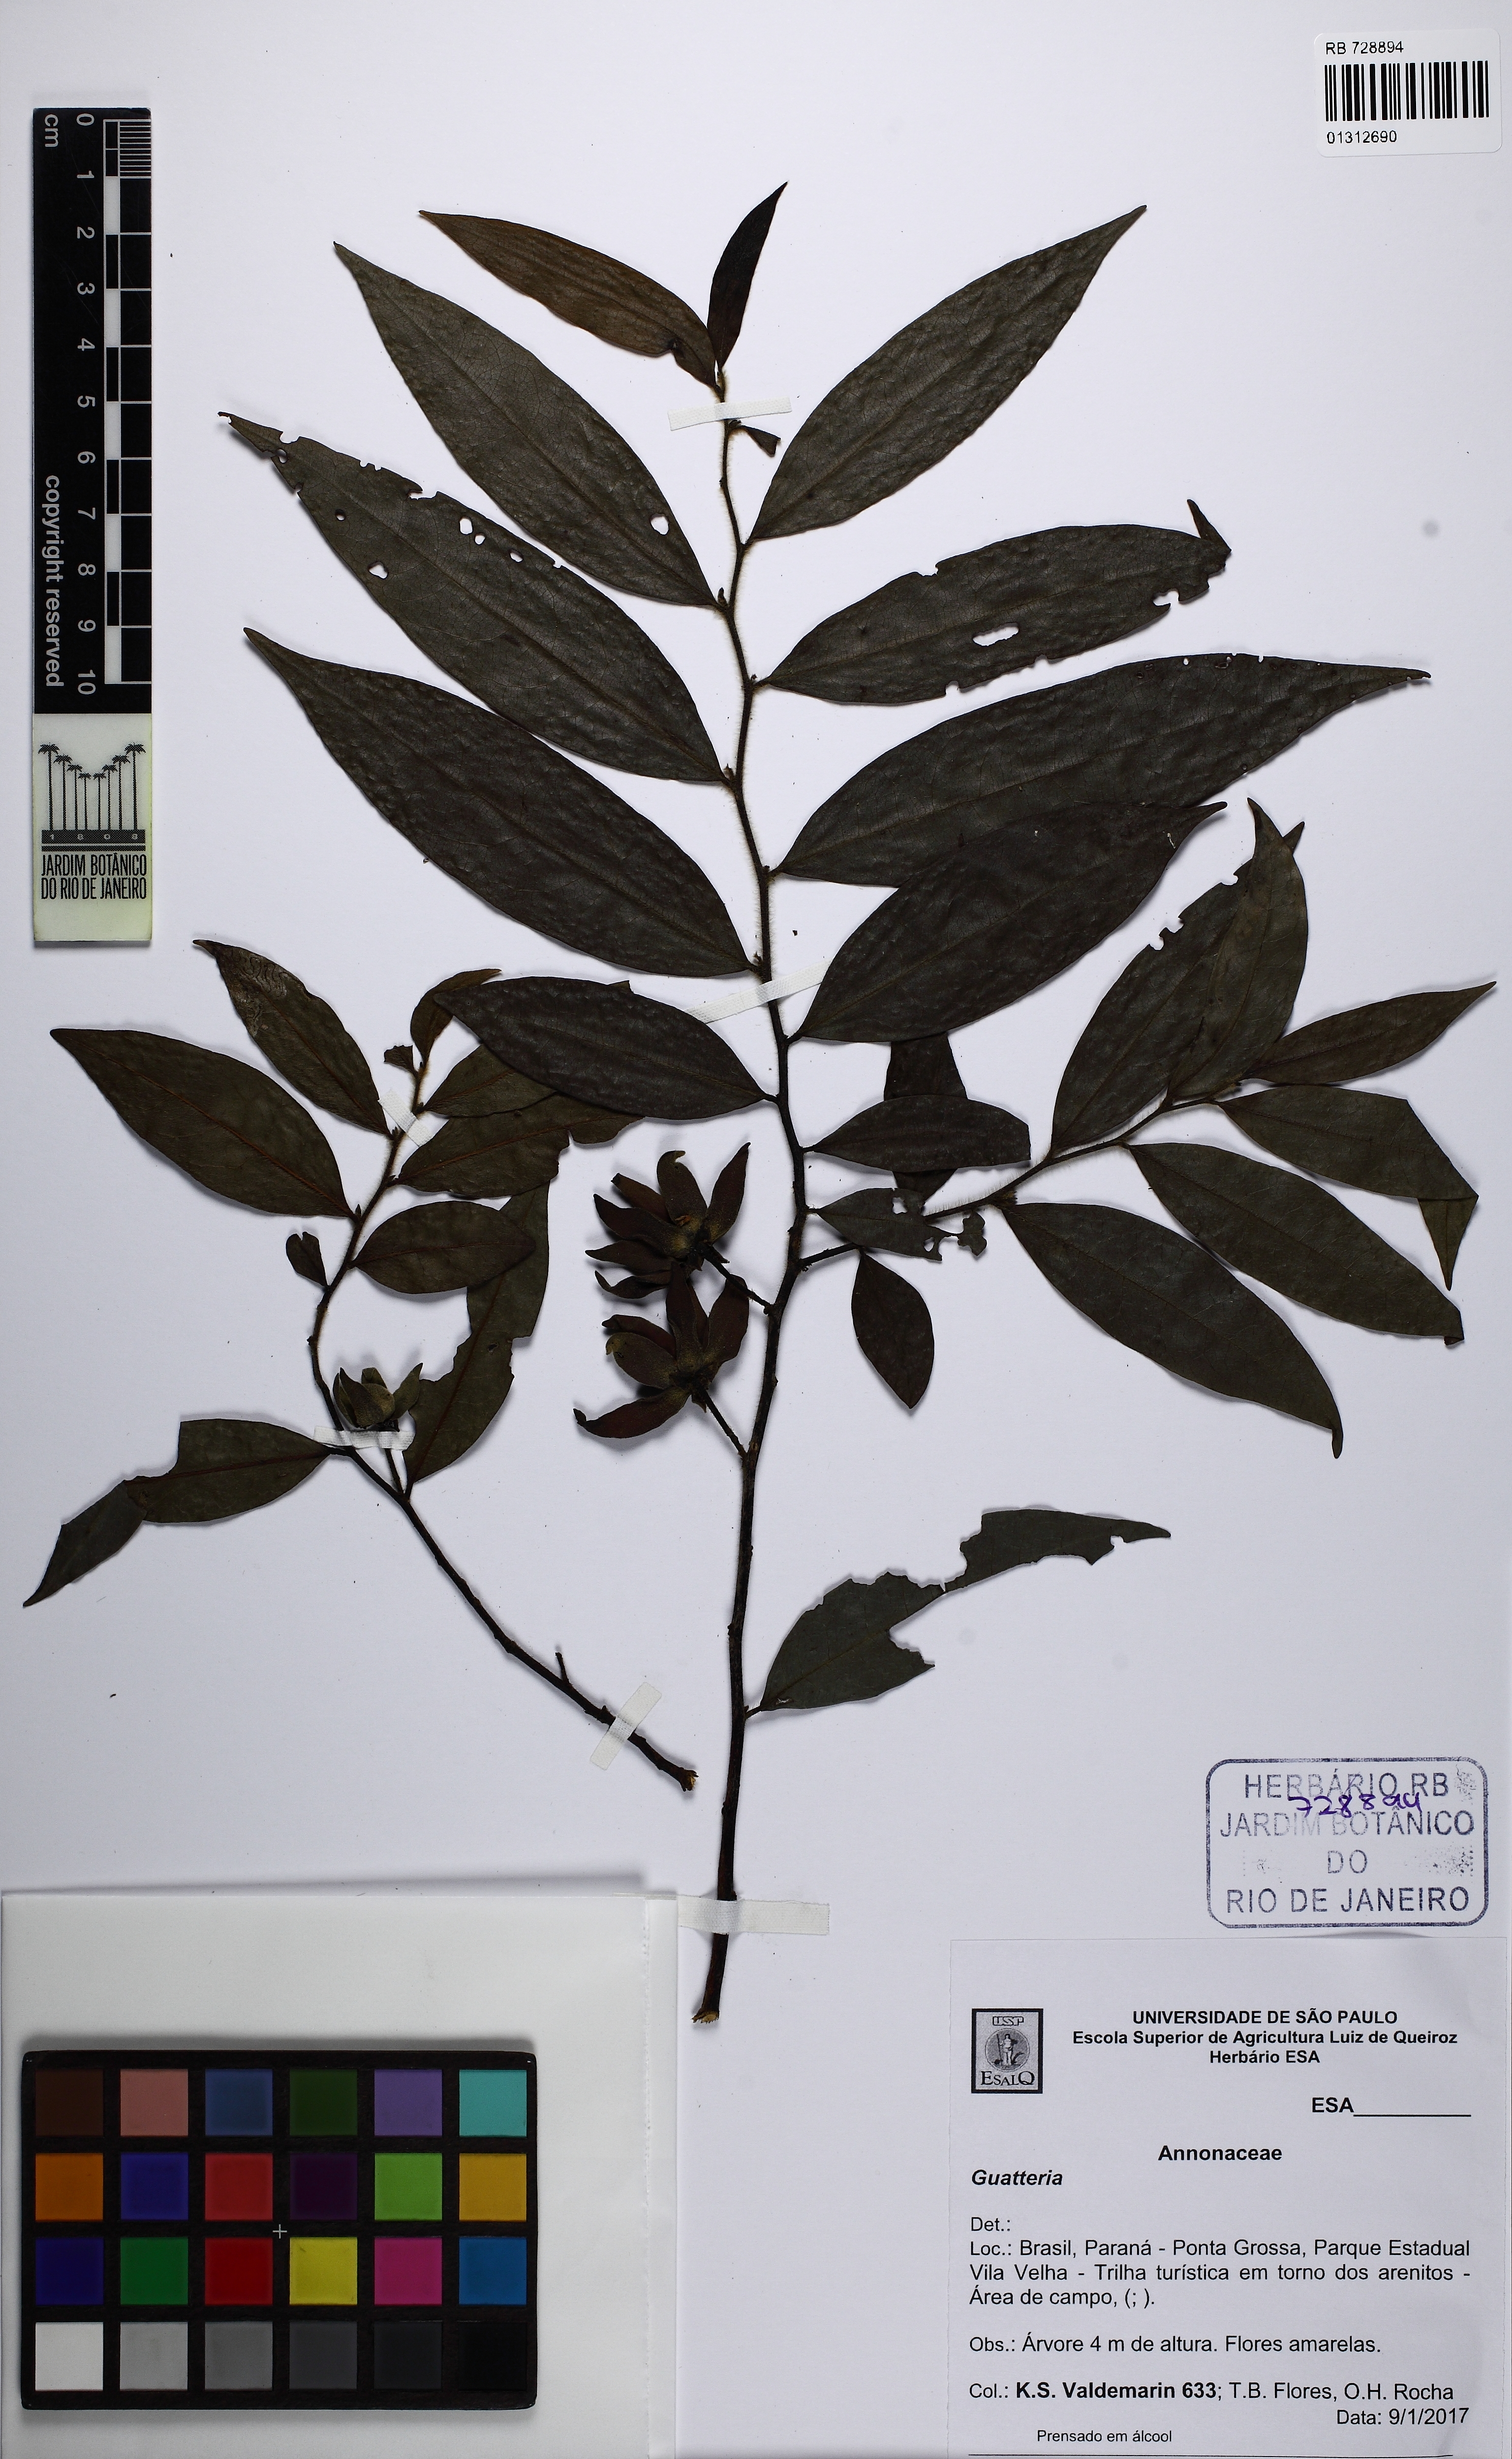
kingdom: Plantae
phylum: Tracheophyta
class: Magnoliopsida
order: Magnoliales
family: Annonaceae
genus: Guatteria
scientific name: Guatteria australis
